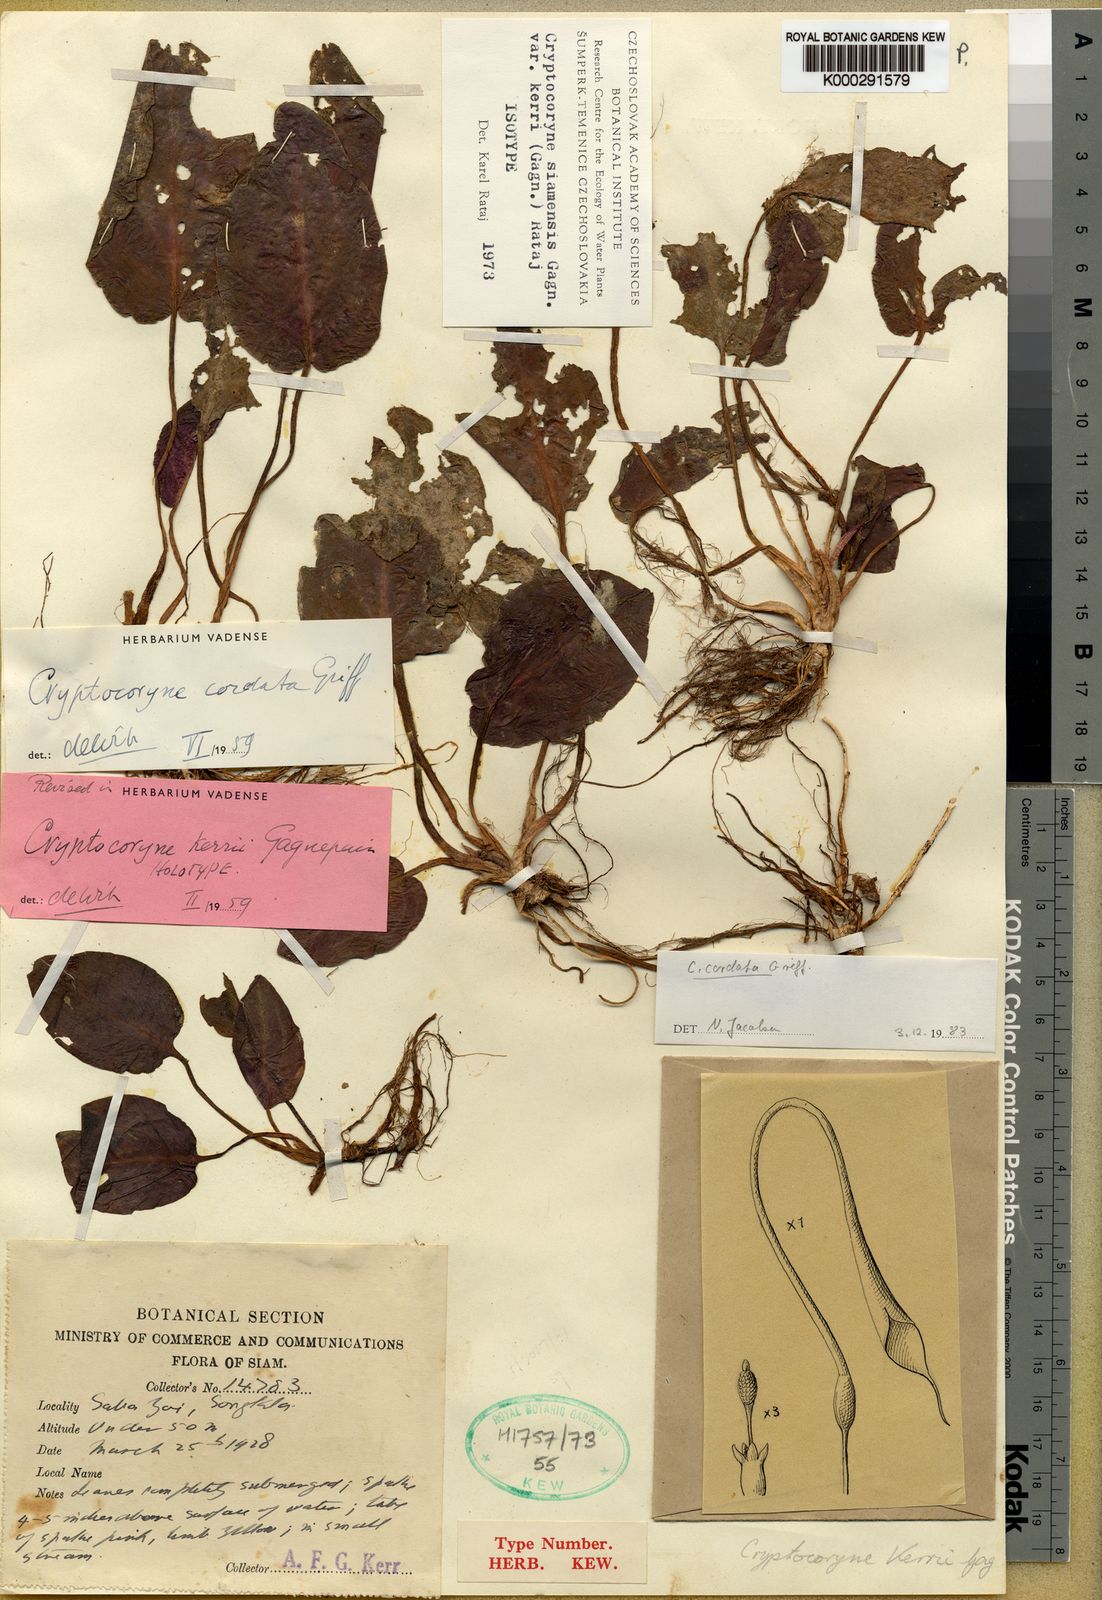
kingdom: Plantae
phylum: Tracheophyta
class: Liliopsida
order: Alismatales
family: Araceae
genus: Cryptocoryne
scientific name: Cryptocoryne cordata
